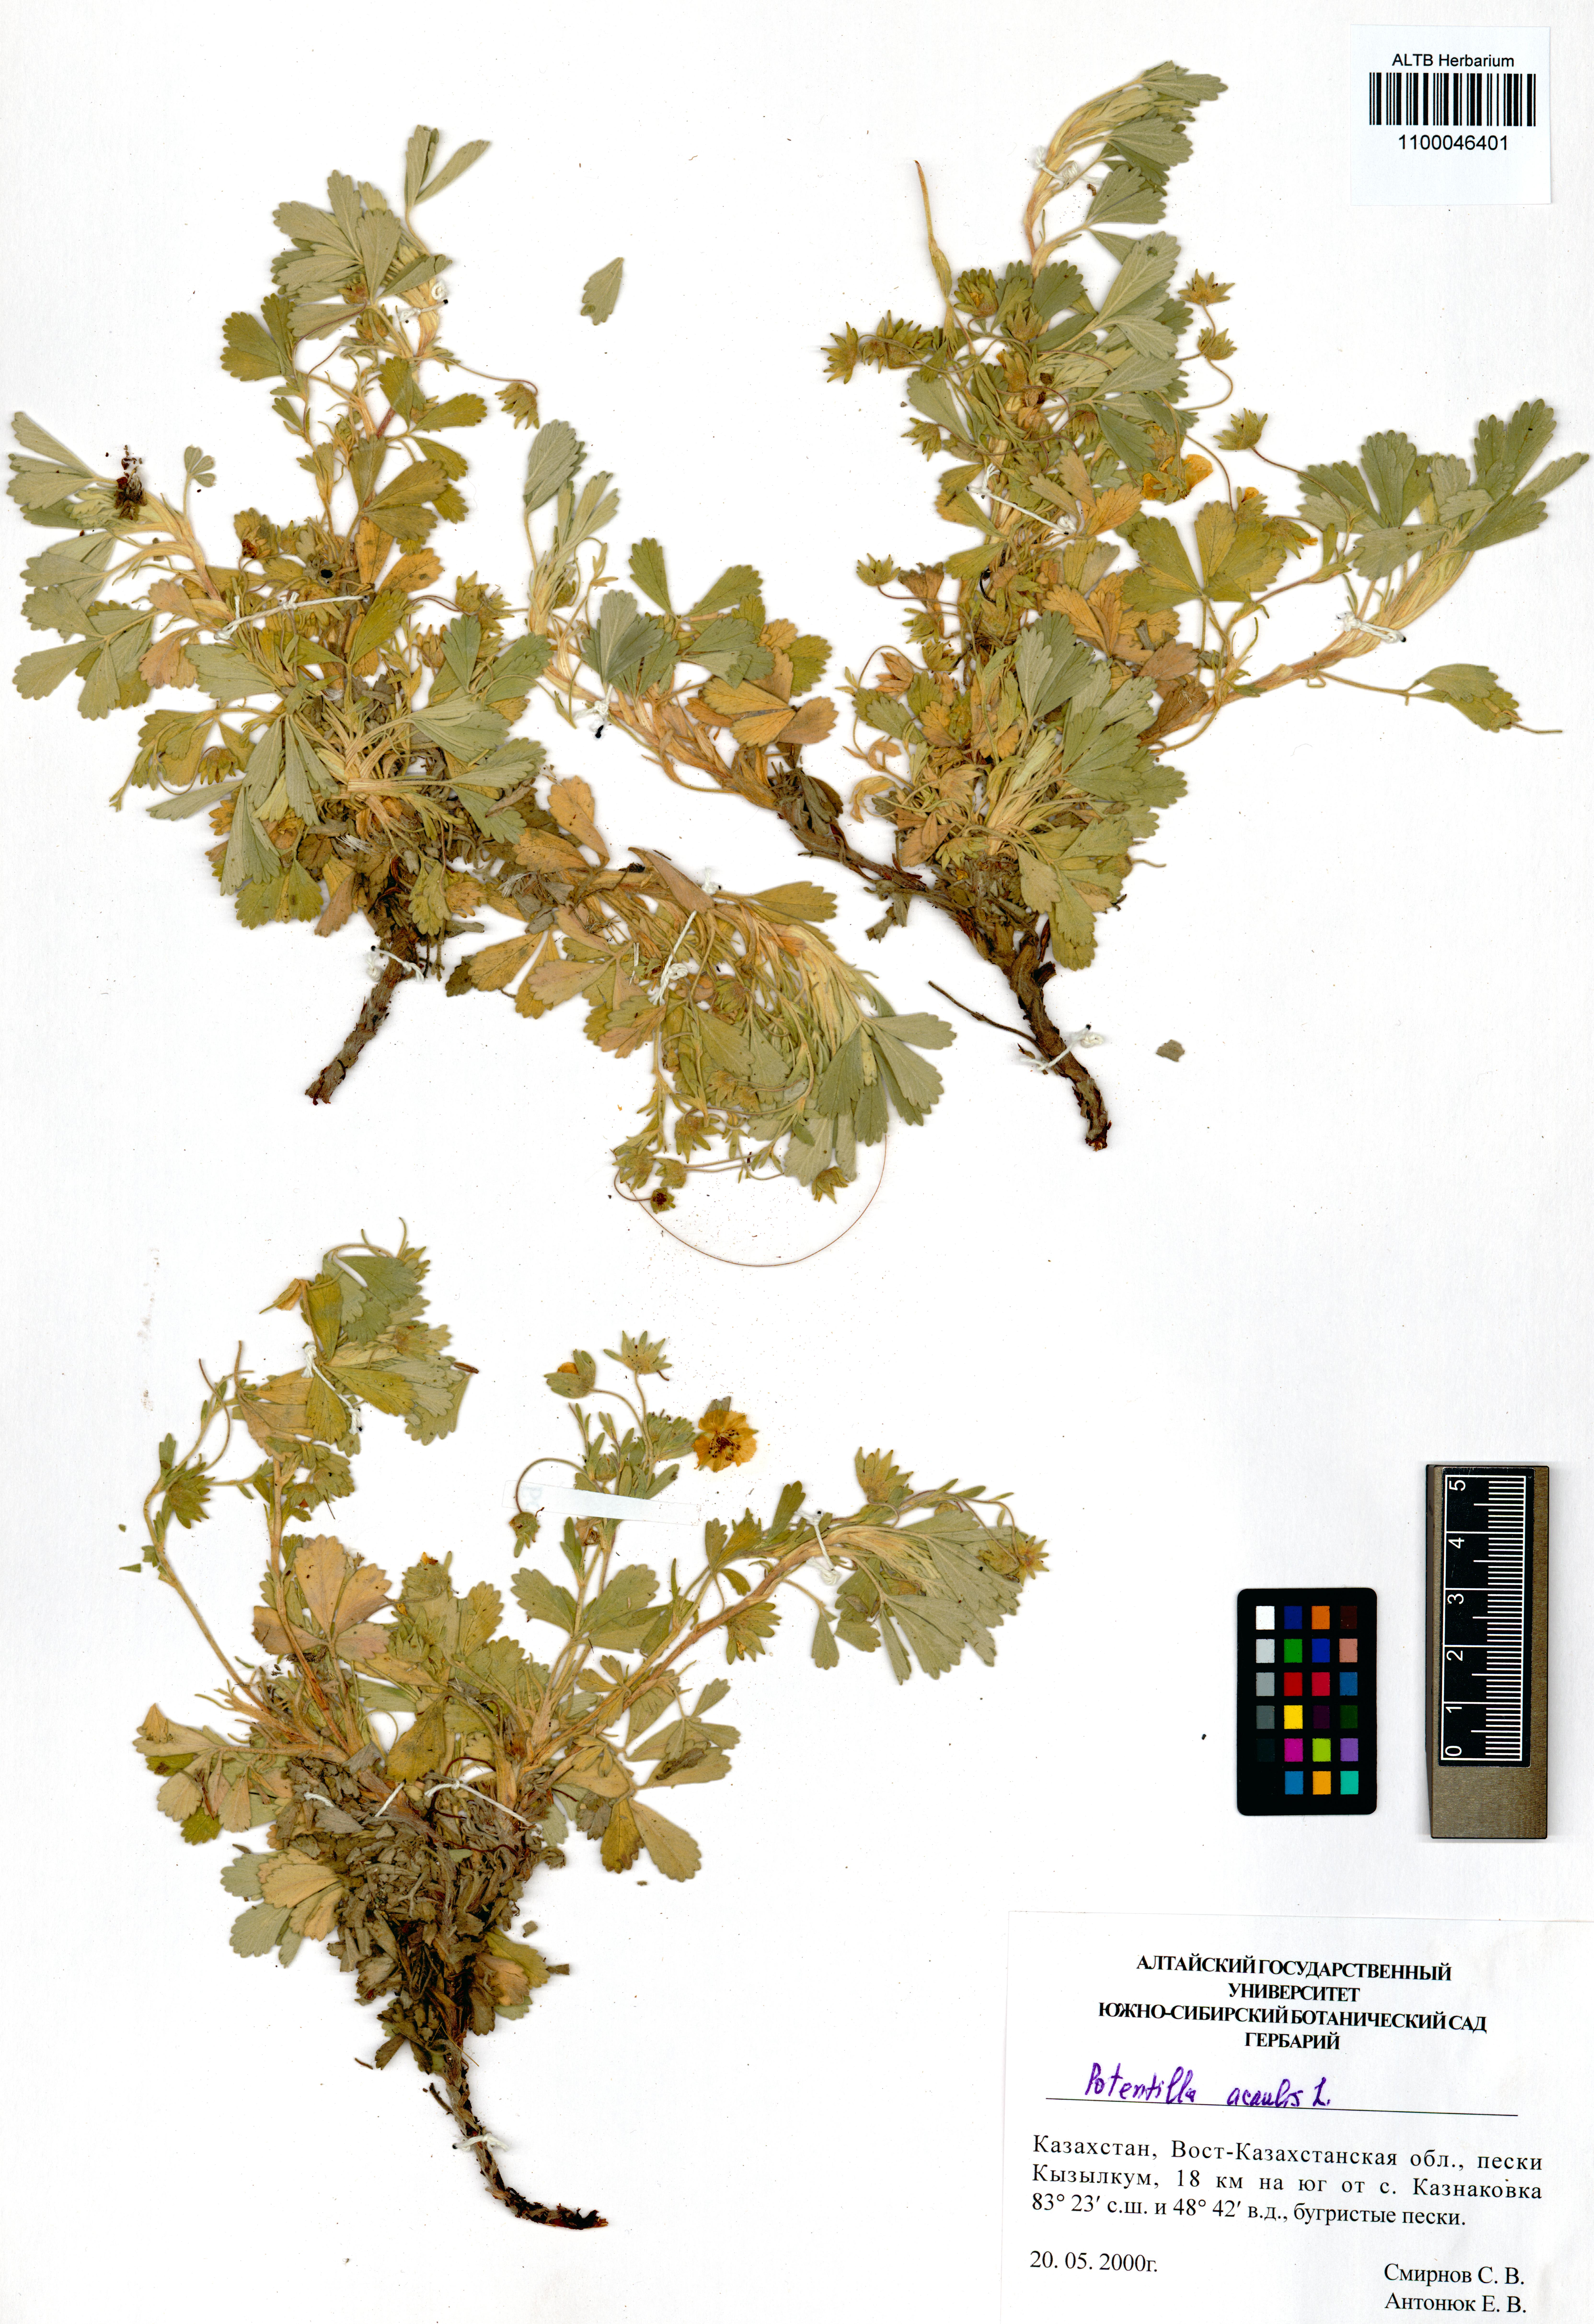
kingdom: Plantae
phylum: Tracheophyta
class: Magnoliopsida
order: Rosales
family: Rosaceae
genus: Potentilla
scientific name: Potentilla acaulis
